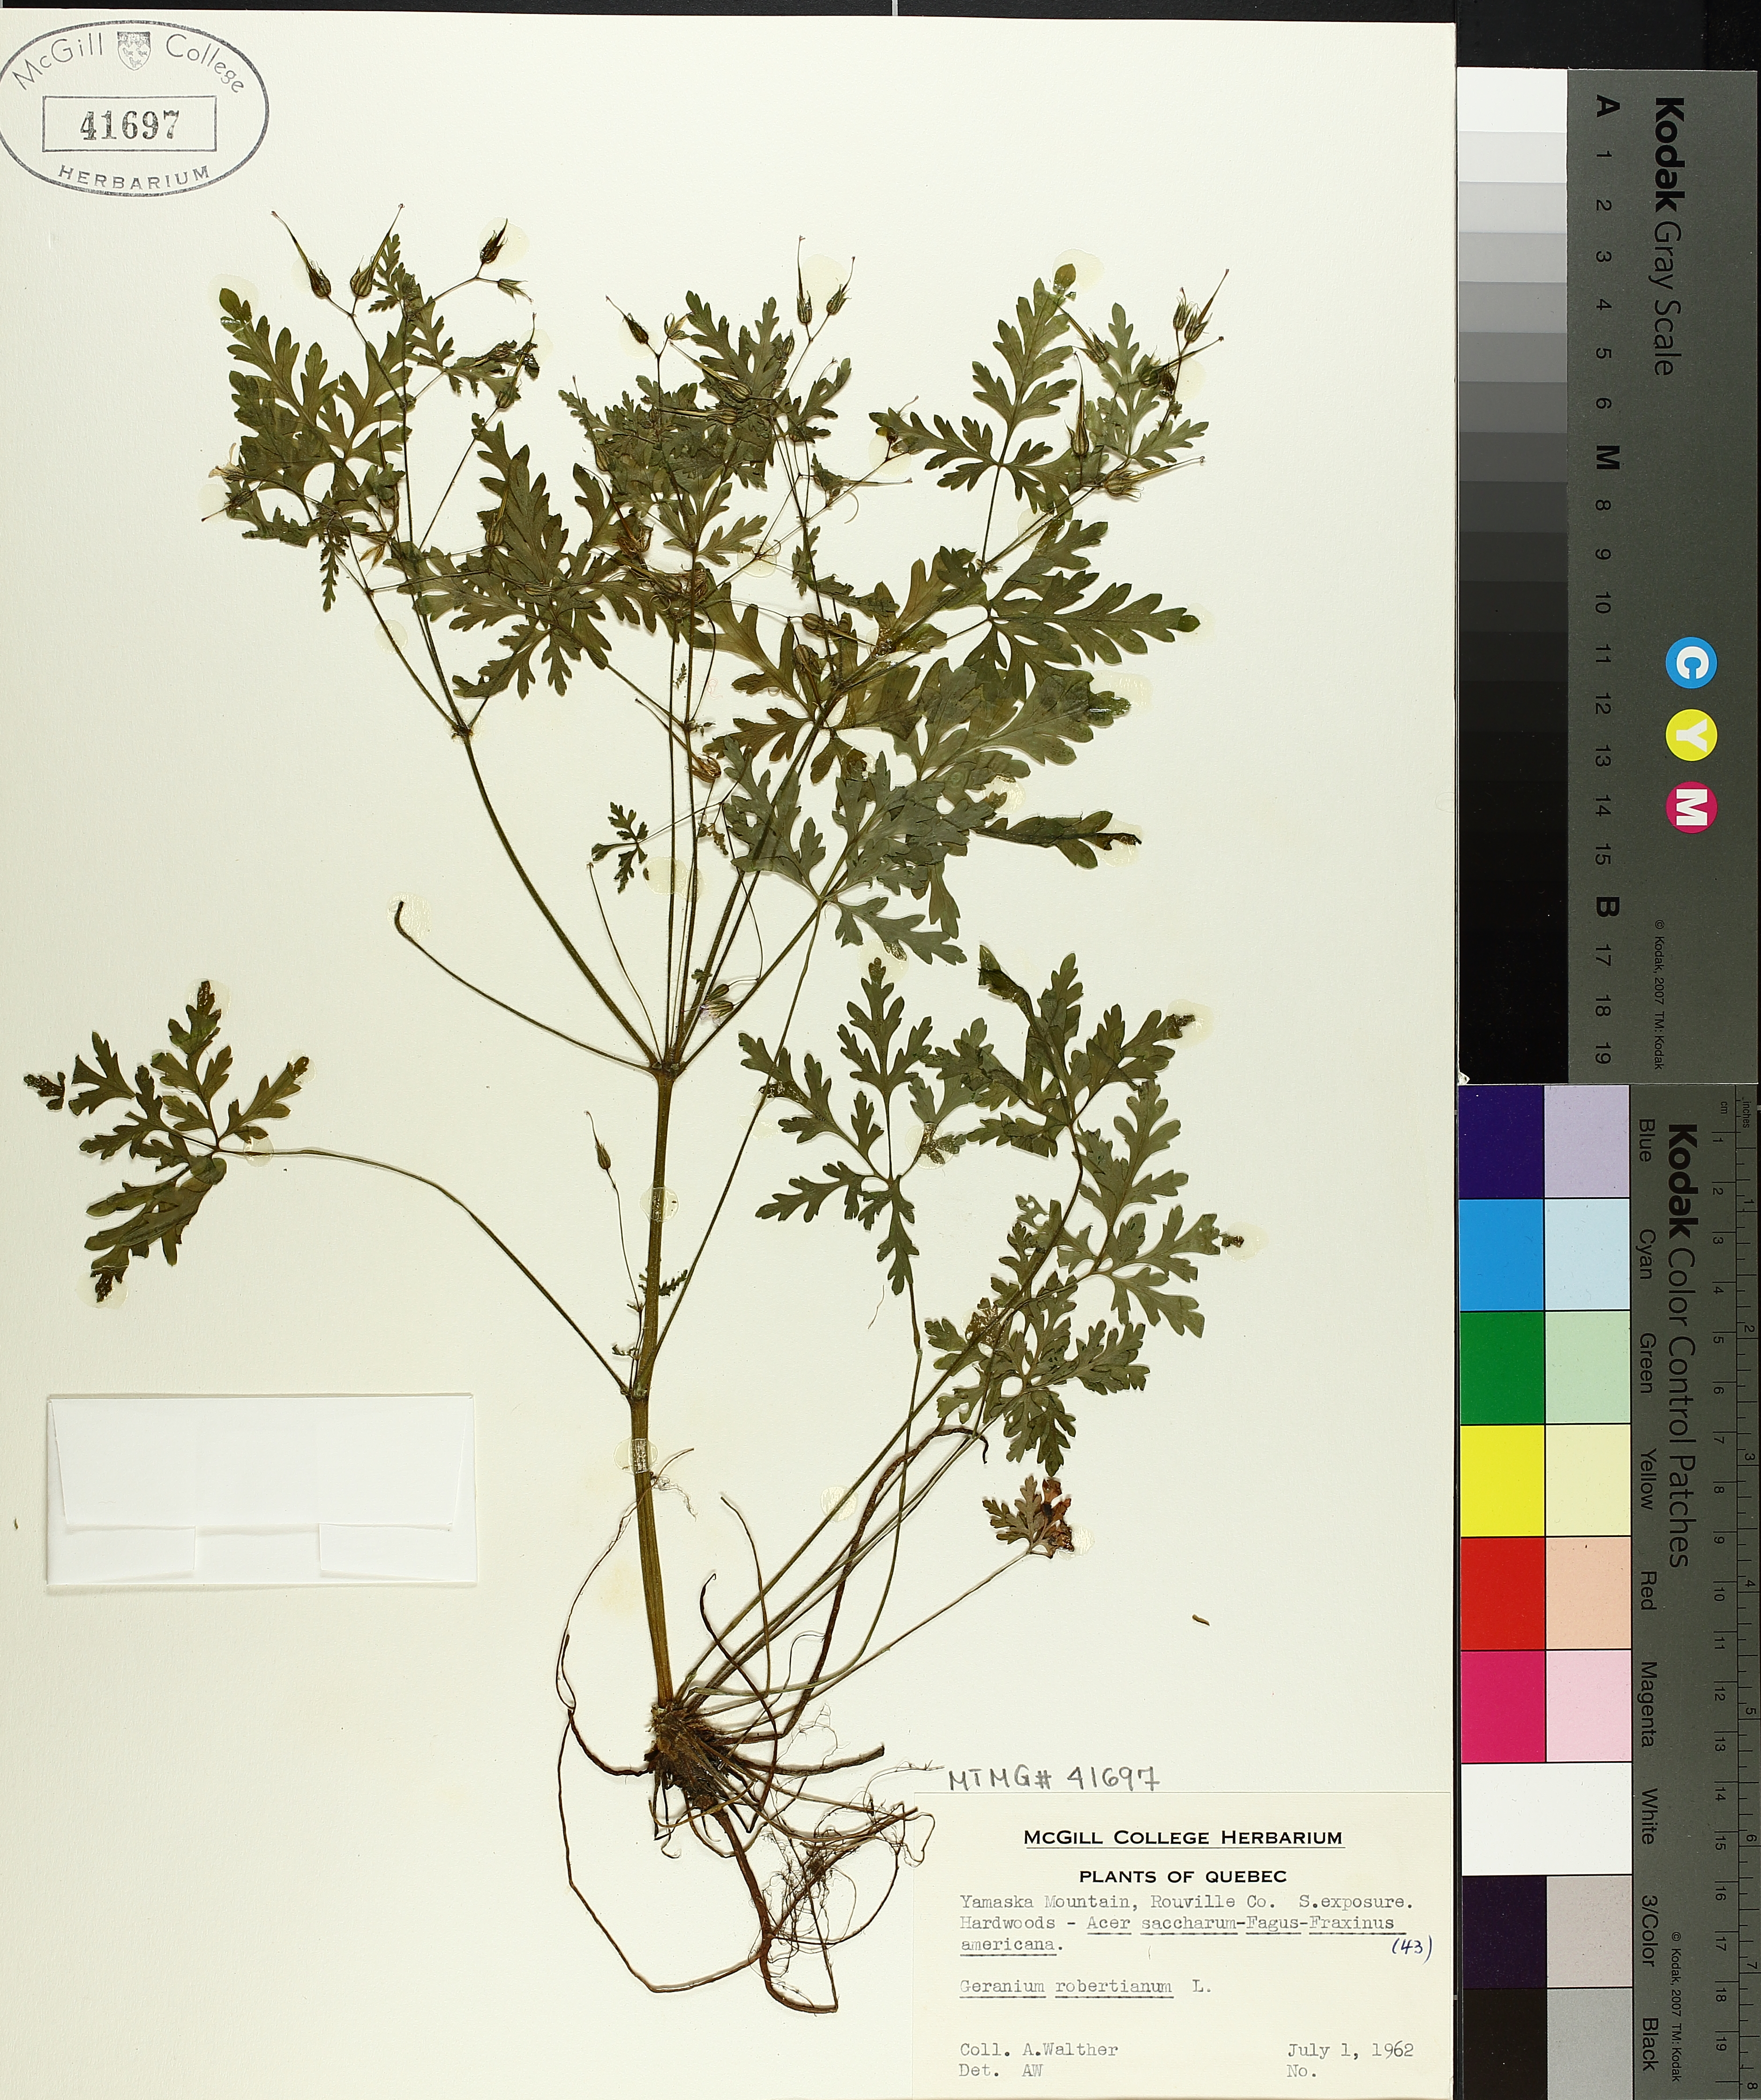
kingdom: Plantae
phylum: Tracheophyta
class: Magnoliopsida
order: Geraniales
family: Geraniaceae
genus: Geranium
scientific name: Geranium robertianum
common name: Herb-robert
